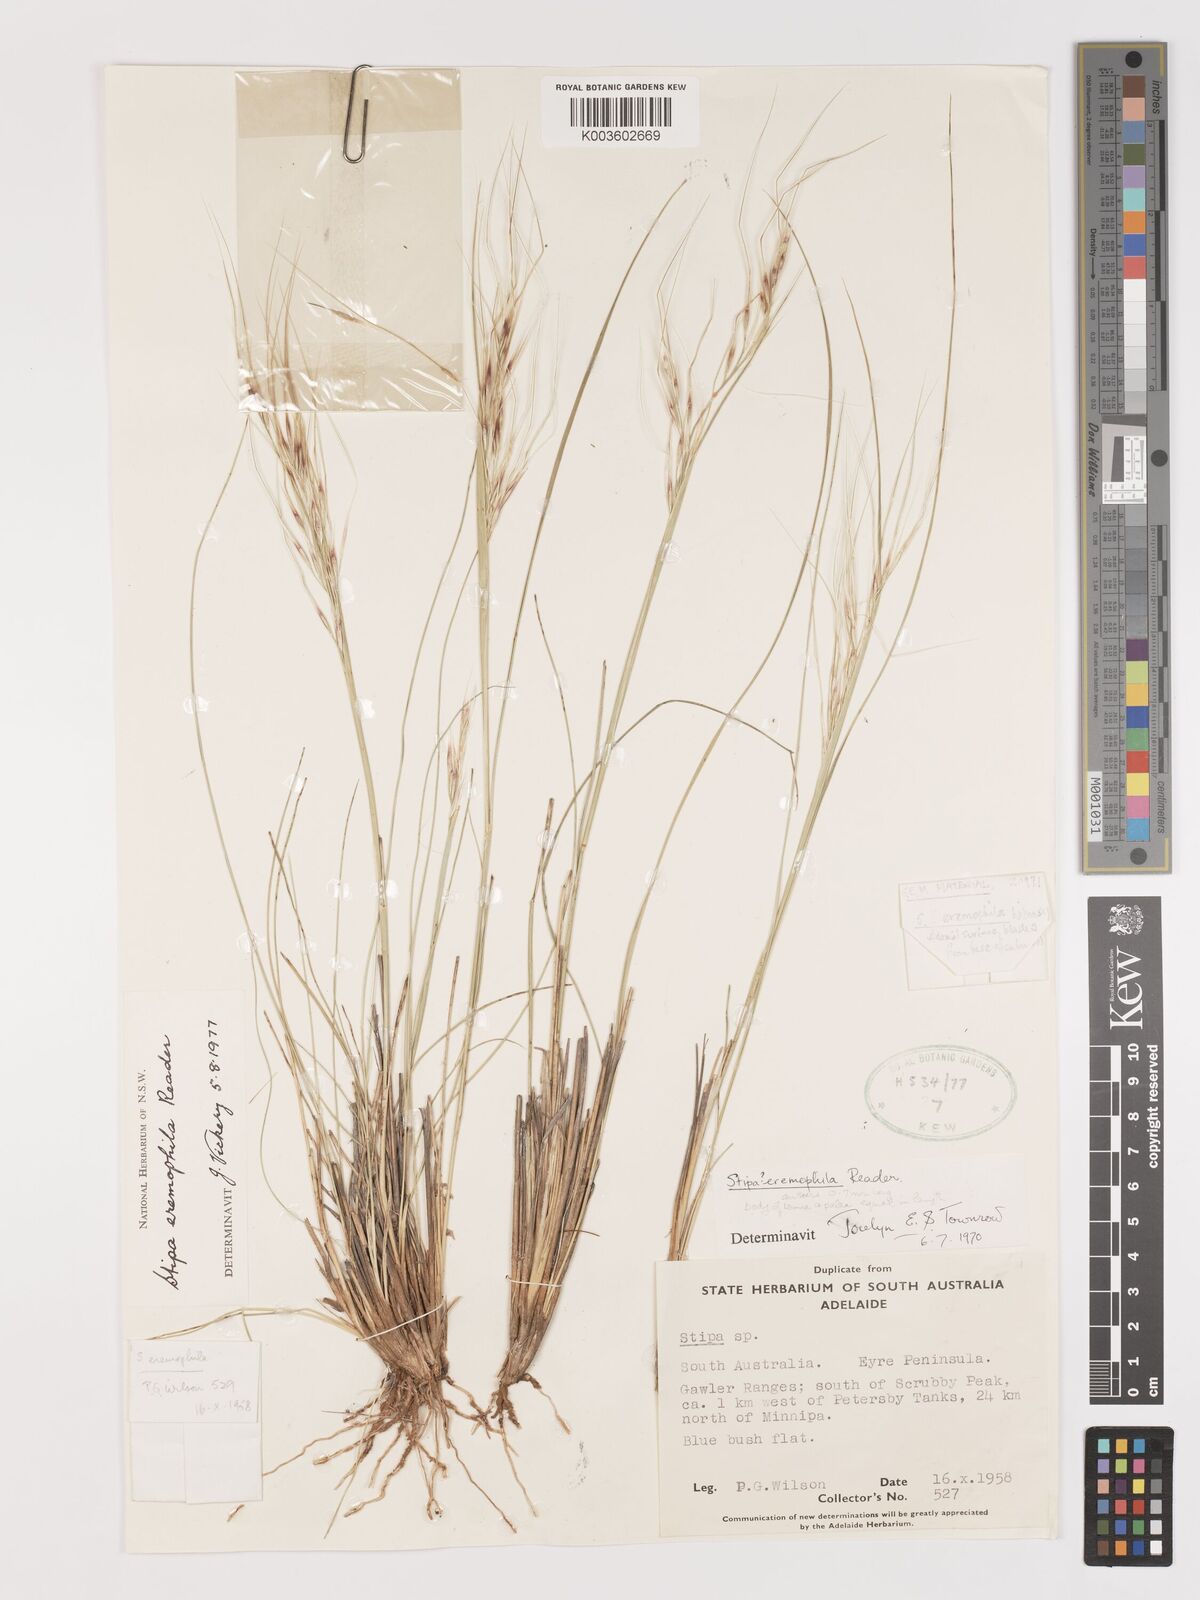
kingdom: Plantae
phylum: Tracheophyta
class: Liliopsida
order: Poales
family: Poaceae
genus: Austrostipa
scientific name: Austrostipa eremophila
